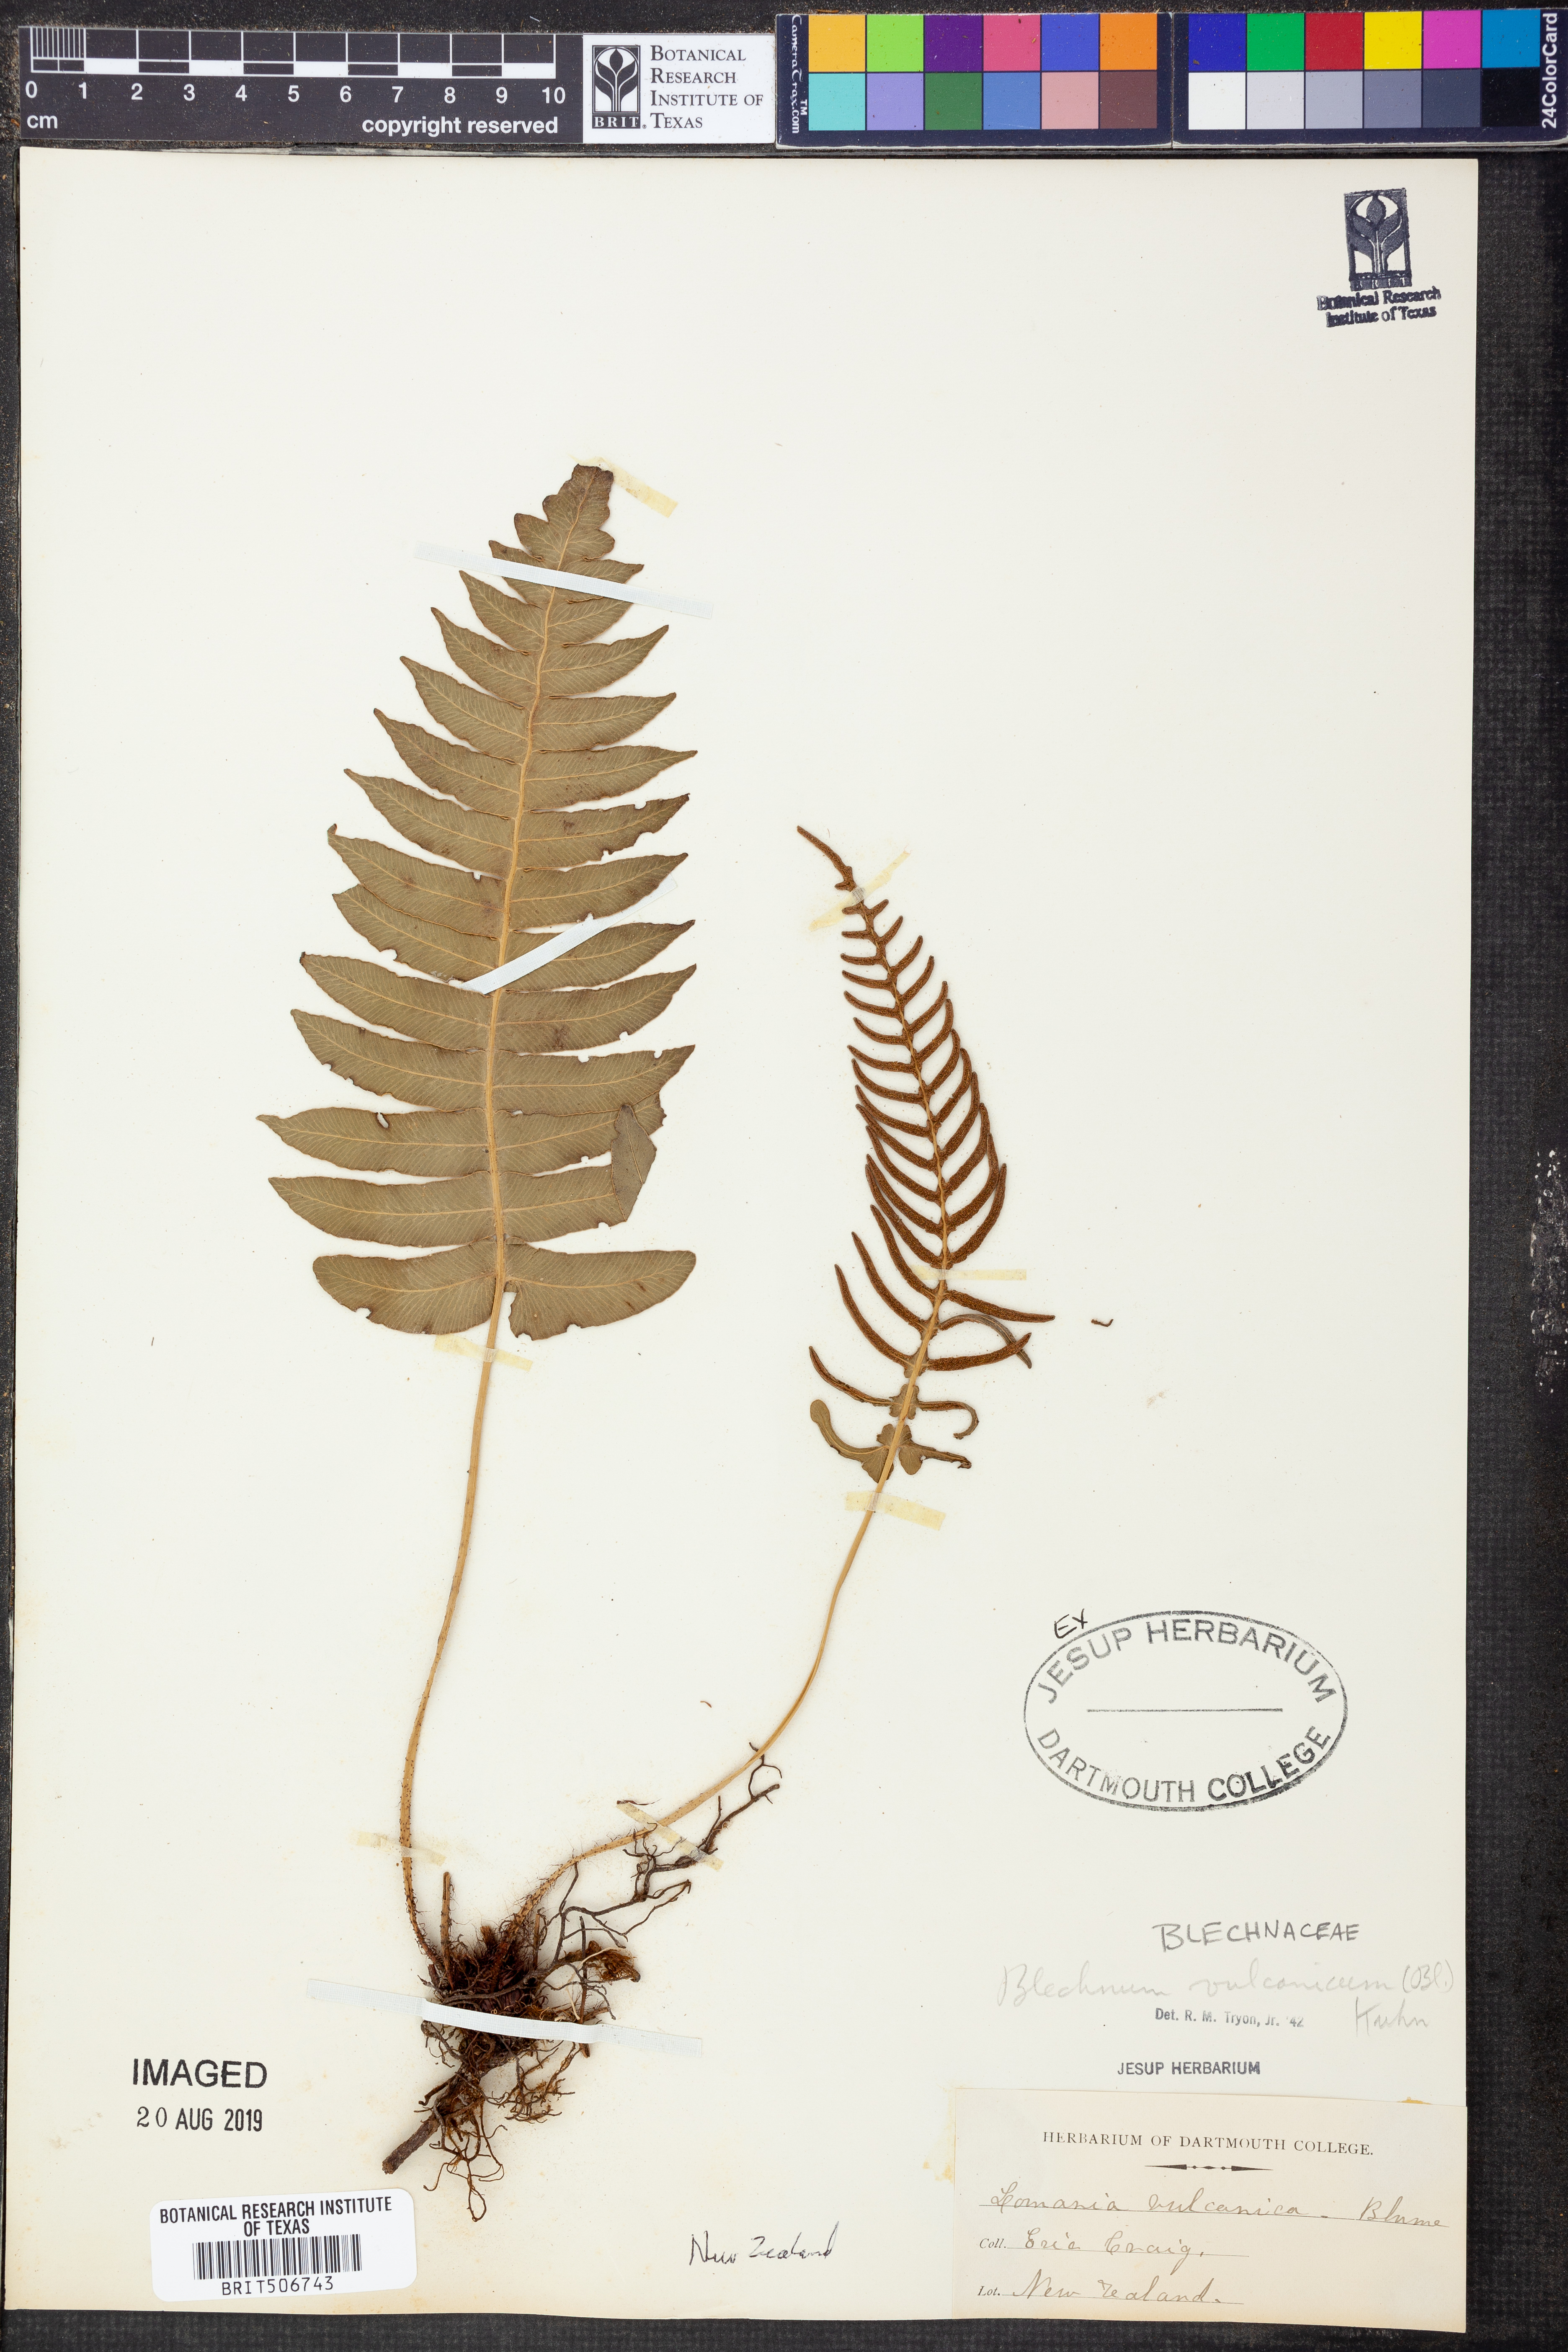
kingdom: Plantae
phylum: Tracheophyta
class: Polypodiopsida
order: Polypodiales
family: Blechnaceae
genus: Cranfillia
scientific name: Cranfillia vulcanica
